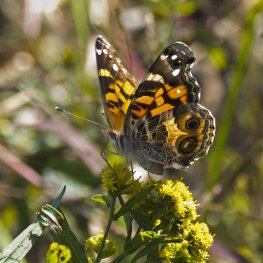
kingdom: Animalia
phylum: Arthropoda
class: Insecta
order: Lepidoptera
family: Nymphalidae
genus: Vanessa
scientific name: Vanessa virginiensis
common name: American Lady
